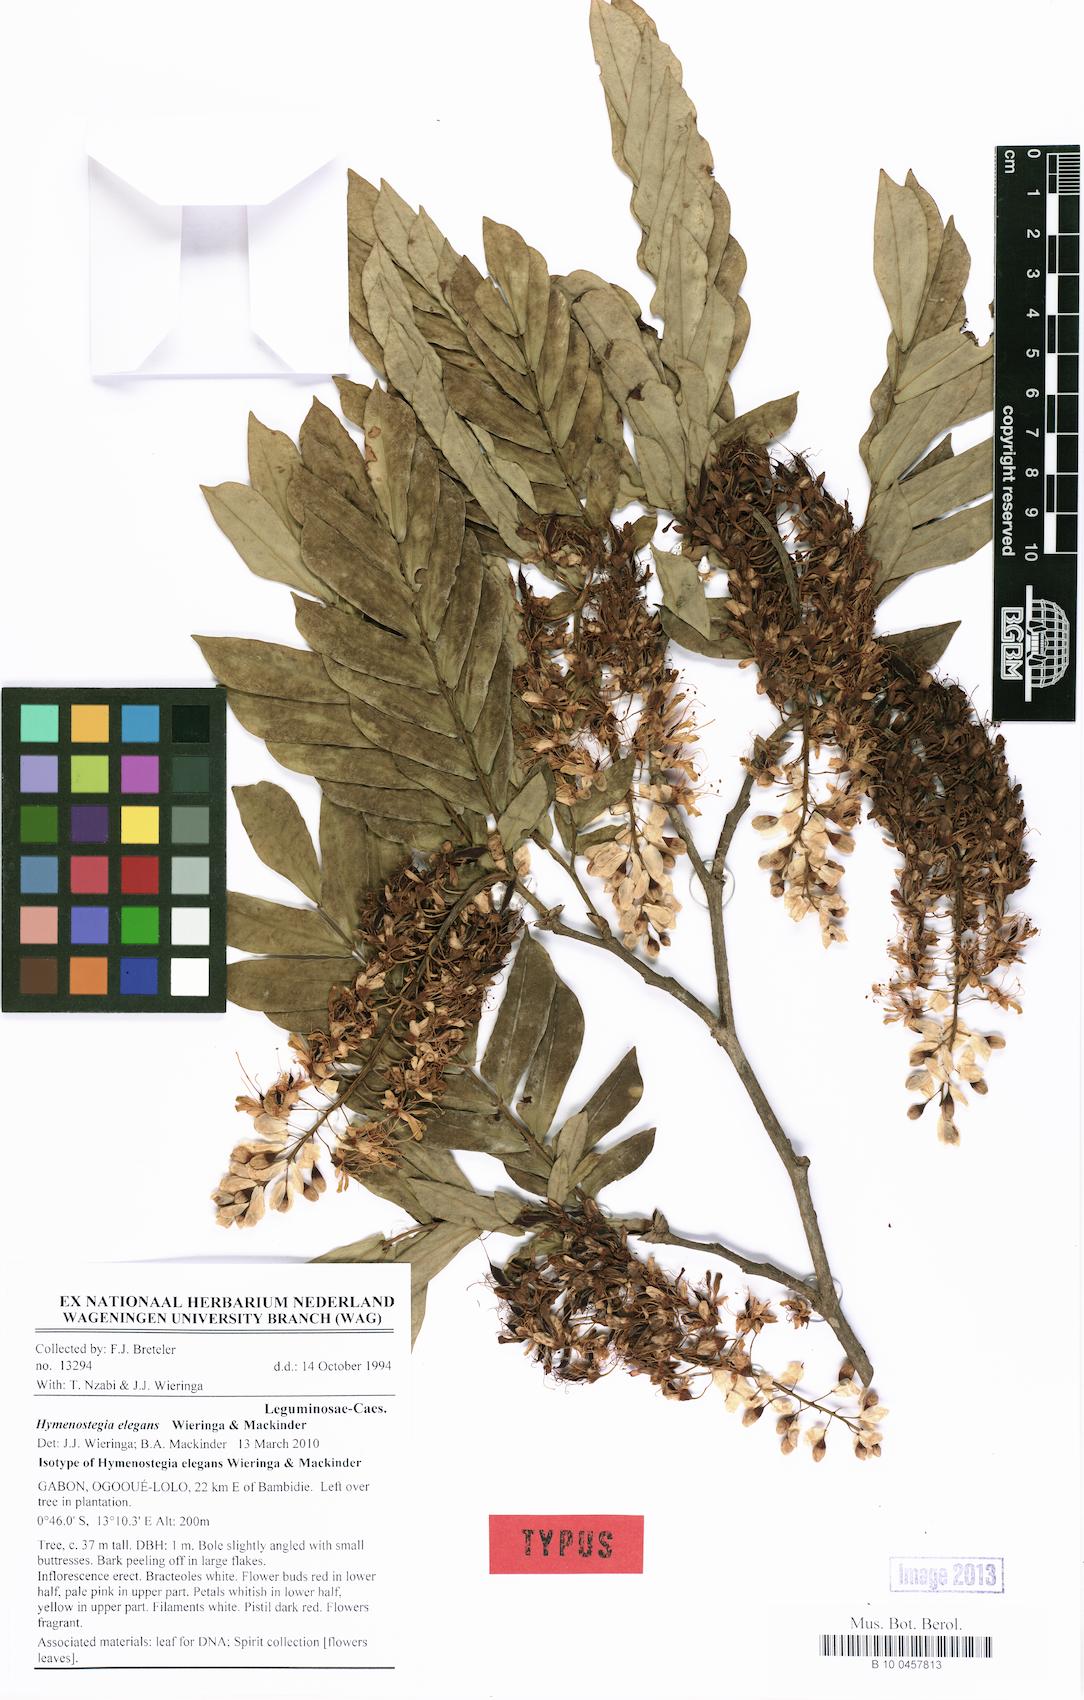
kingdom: Plantae
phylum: Tracheophyta
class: Magnoliopsida
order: Fabales
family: Fabaceae
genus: Hymenostegia
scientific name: Hymenostegia elegans
